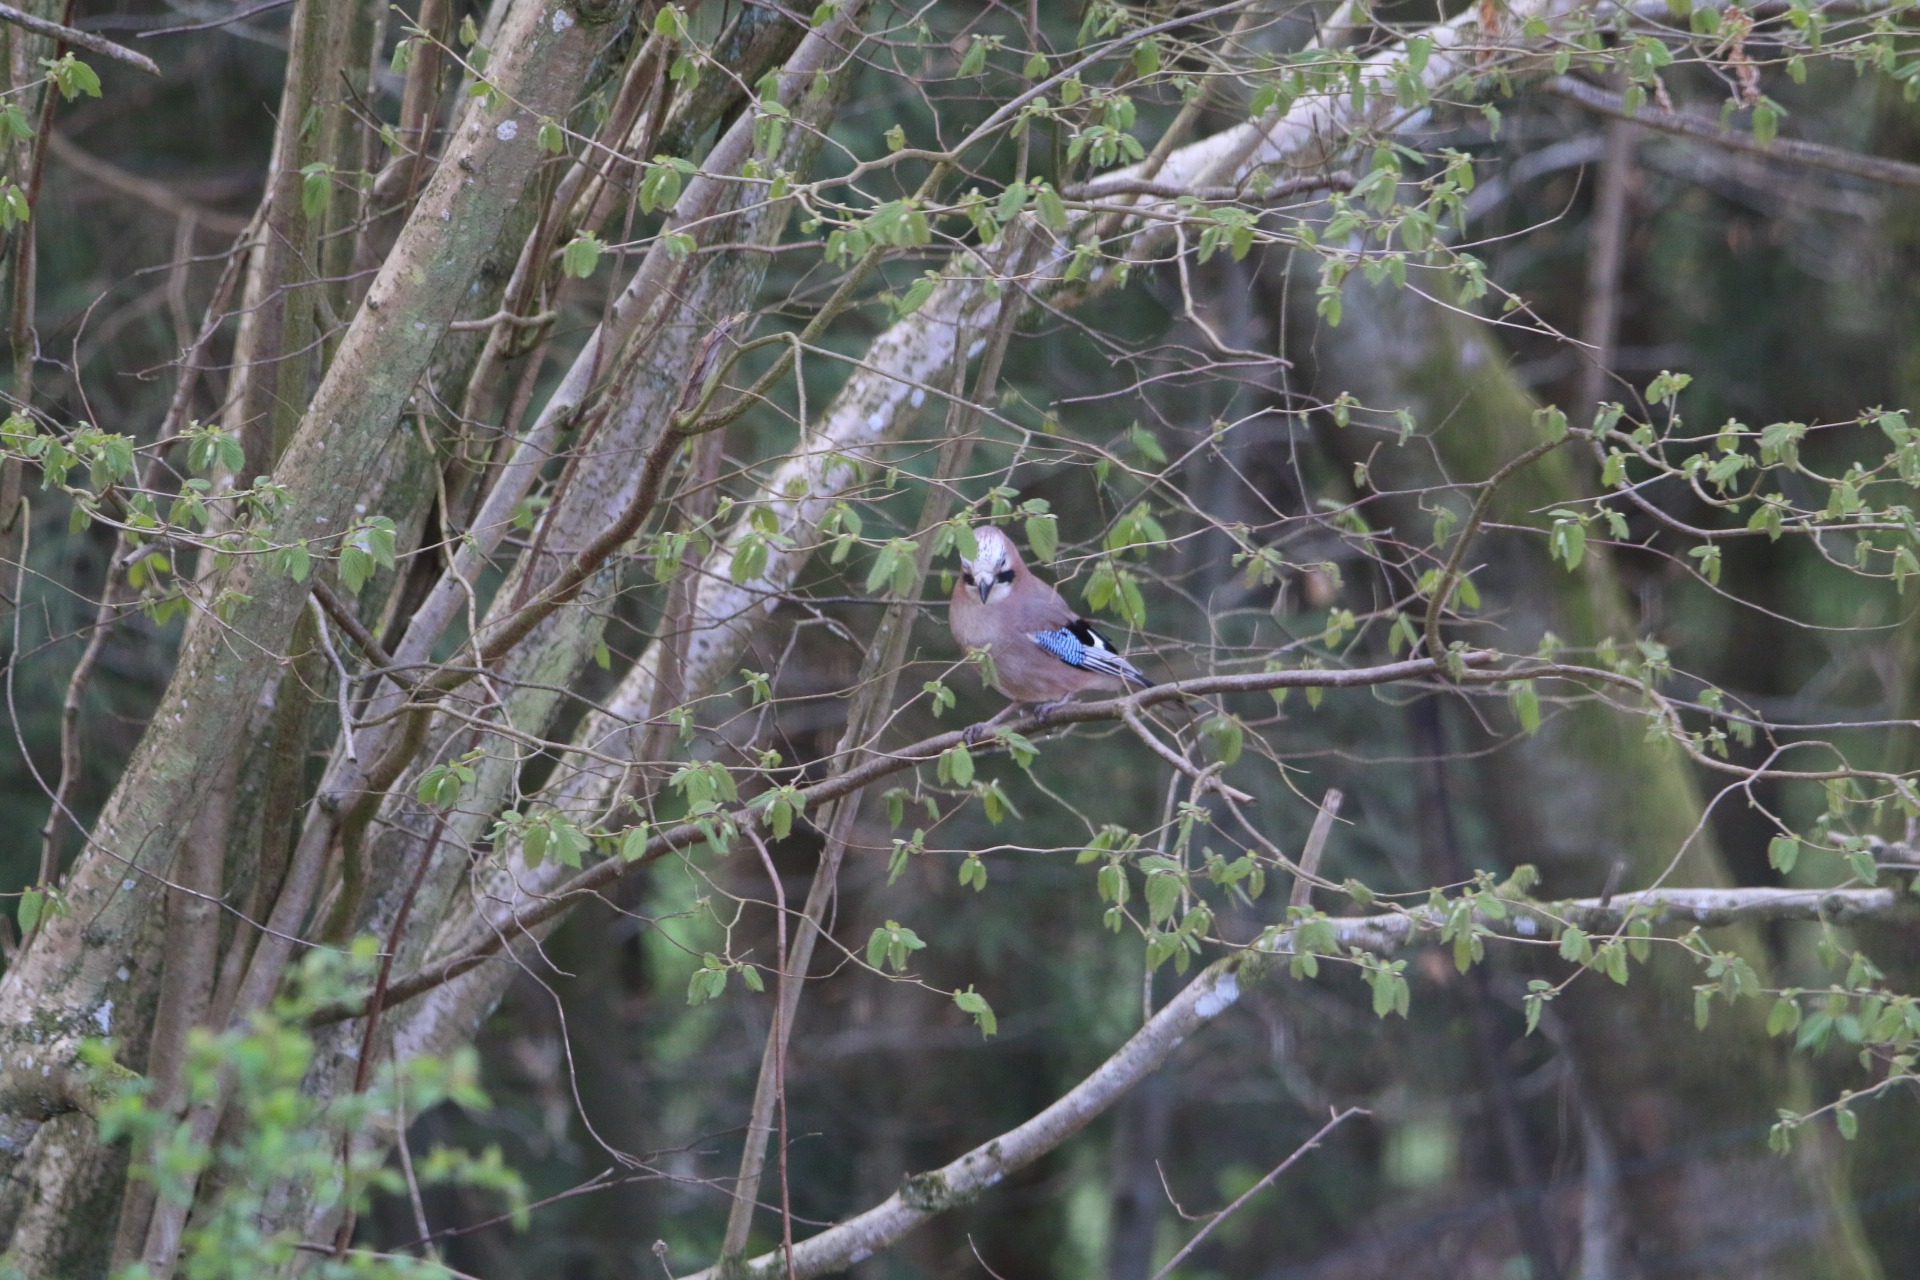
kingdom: Animalia
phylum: Chordata
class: Aves
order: Passeriformes
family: Corvidae
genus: Garrulus
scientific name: Garrulus glandarius
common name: Skovskade
